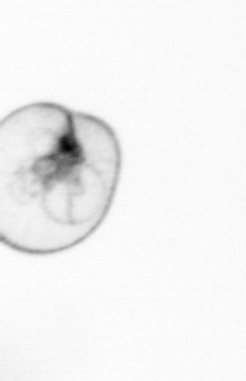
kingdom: Chromista
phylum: Myzozoa
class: Dinophyceae
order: Noctilucales
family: Noctilucaceae
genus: Noctiluca
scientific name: Noctiluca scintillans
